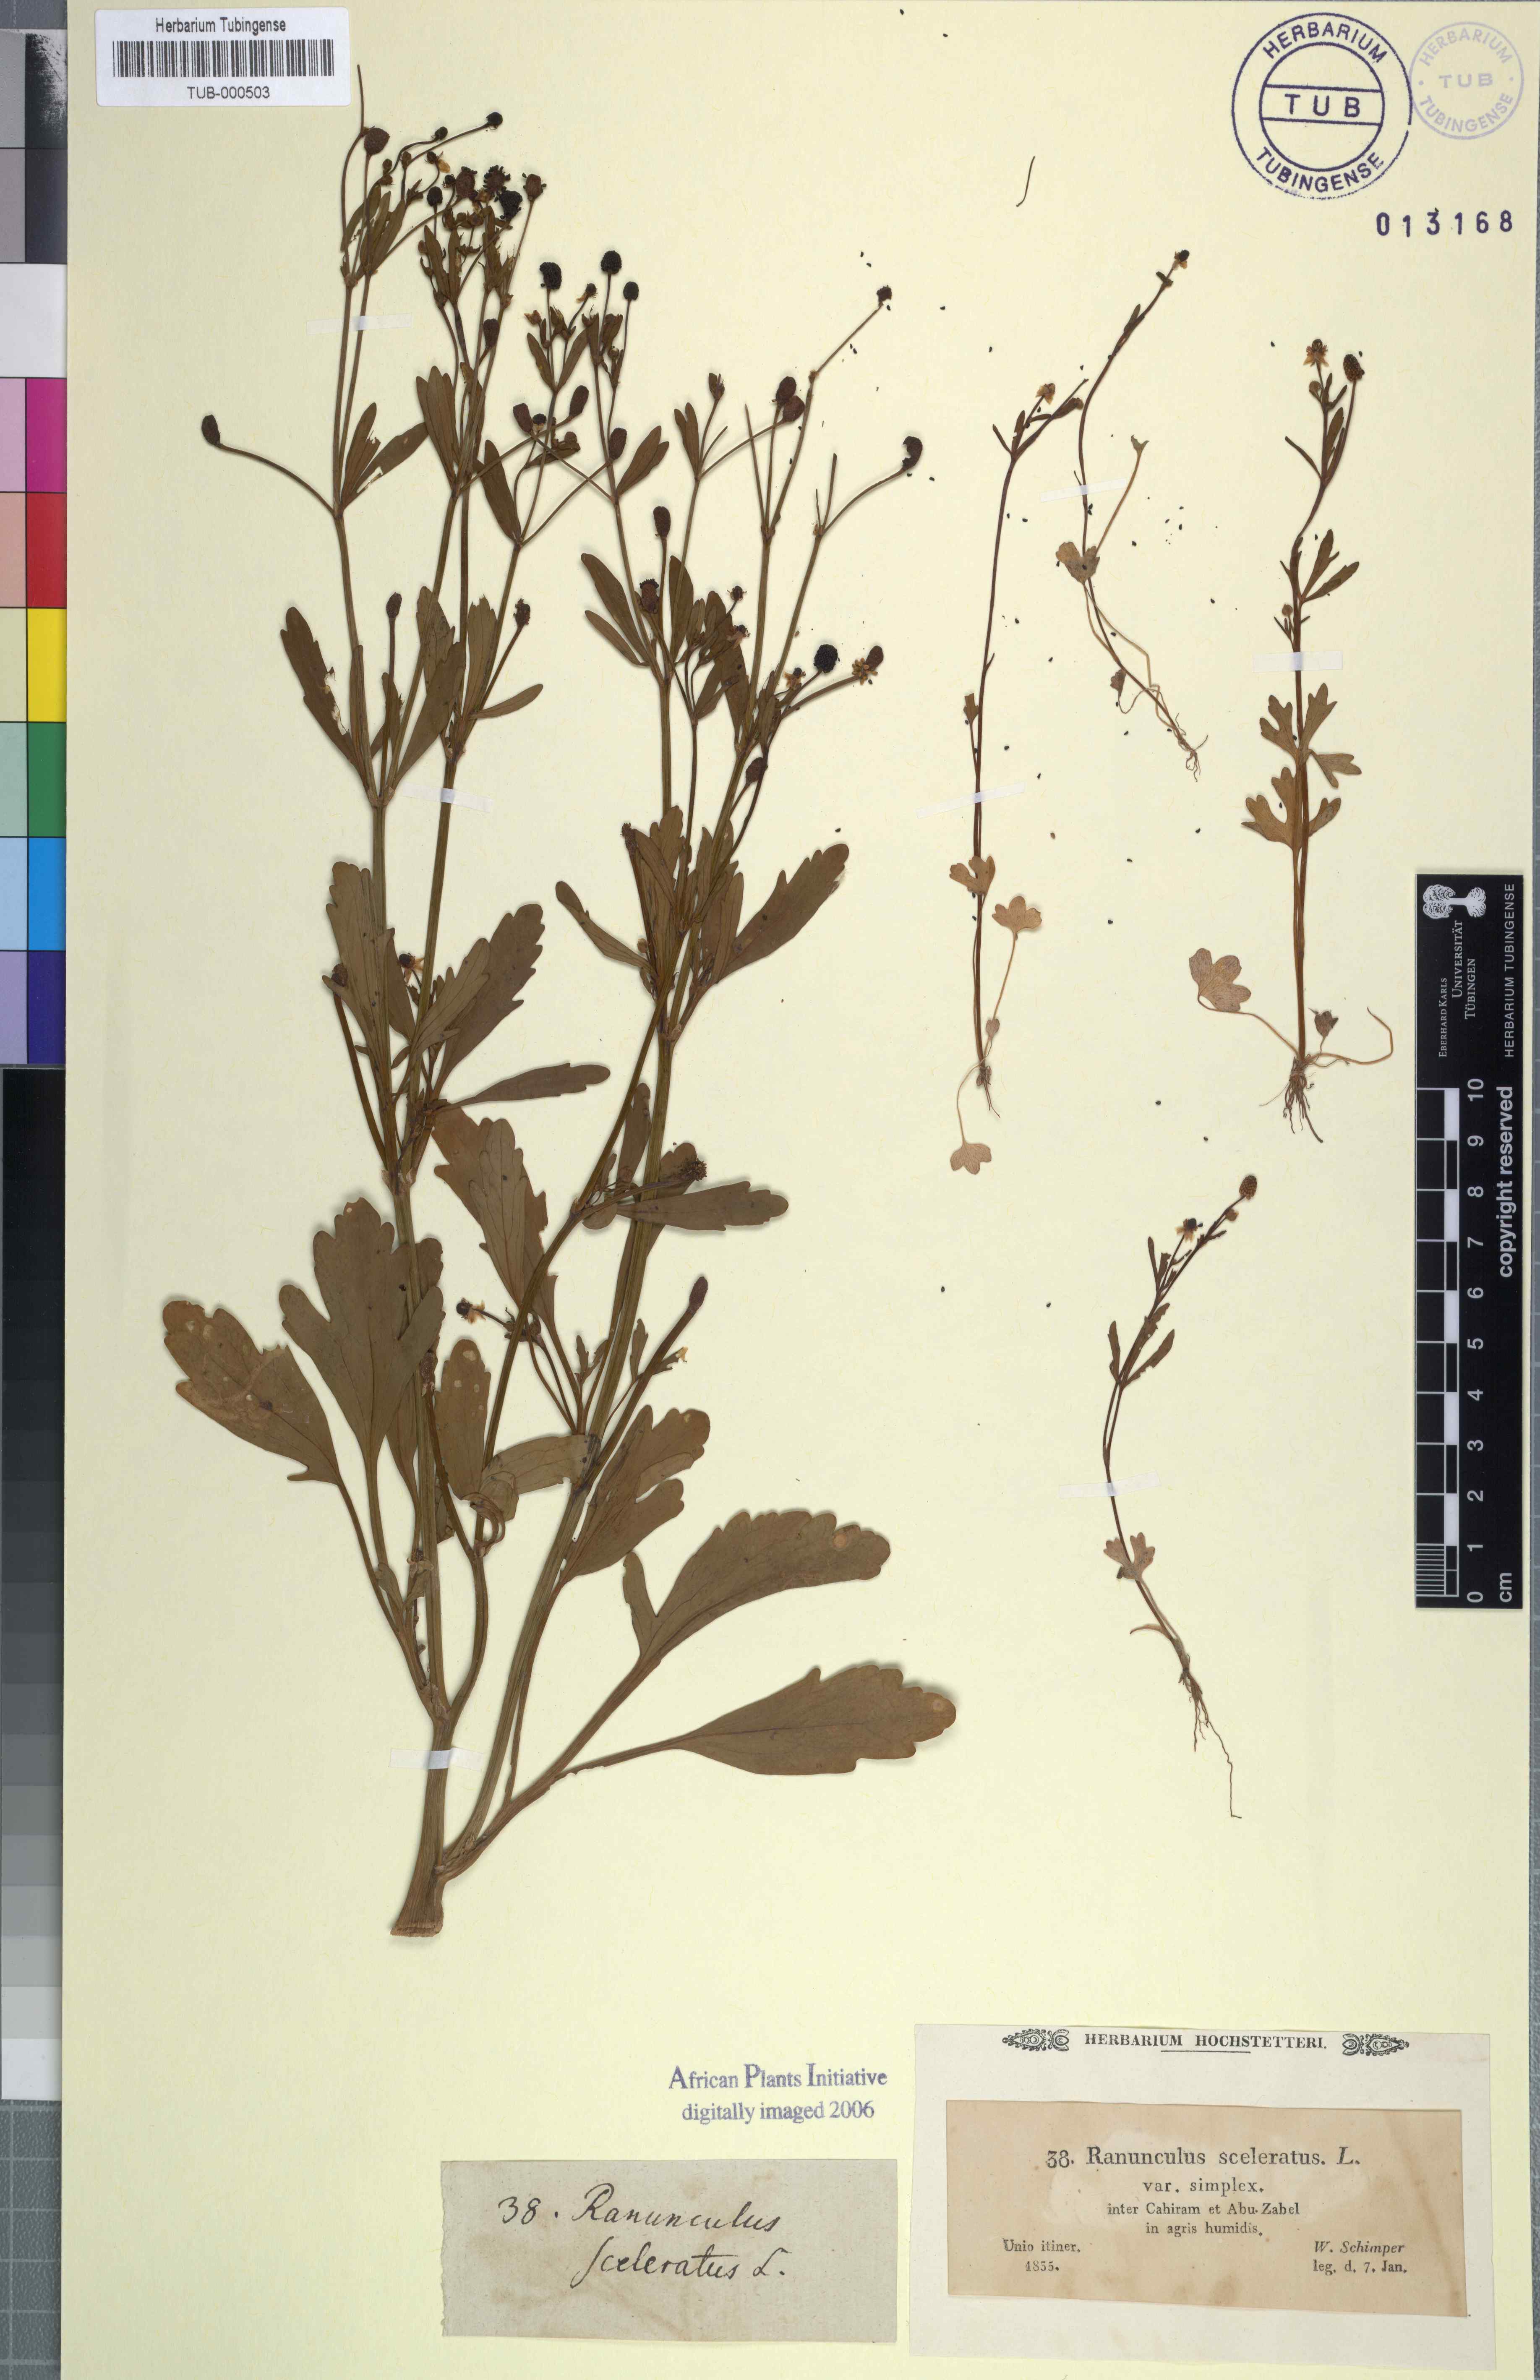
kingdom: Plantae
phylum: Tracheophyta
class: Magnoliopsida
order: Ranunculales
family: Ranunculaceae
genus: Ranunculus
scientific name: Ranunculus sceleratus
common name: Celery-leaved buttercup
